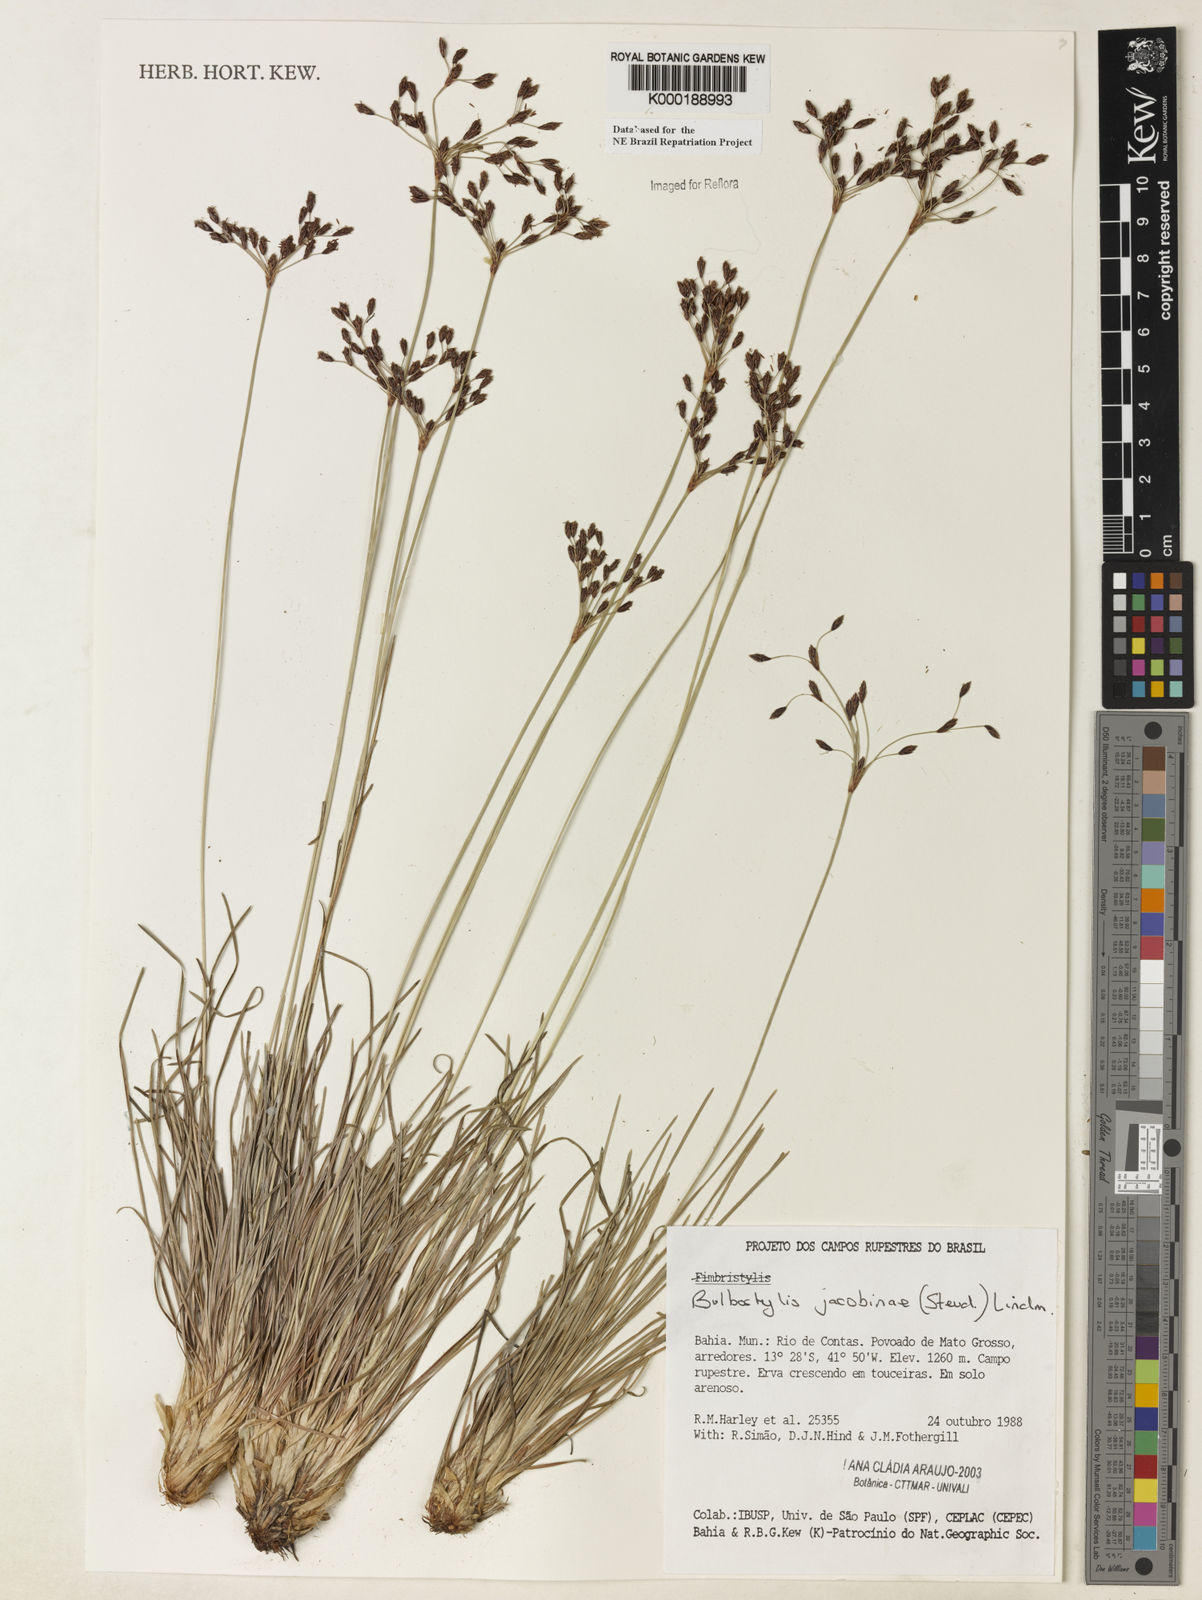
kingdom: Plantae
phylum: Tracheophyta
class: Liliopsida
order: Poales
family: Cyperaceae
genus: Bulbostylis
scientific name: Bulbostylis jacobinae
